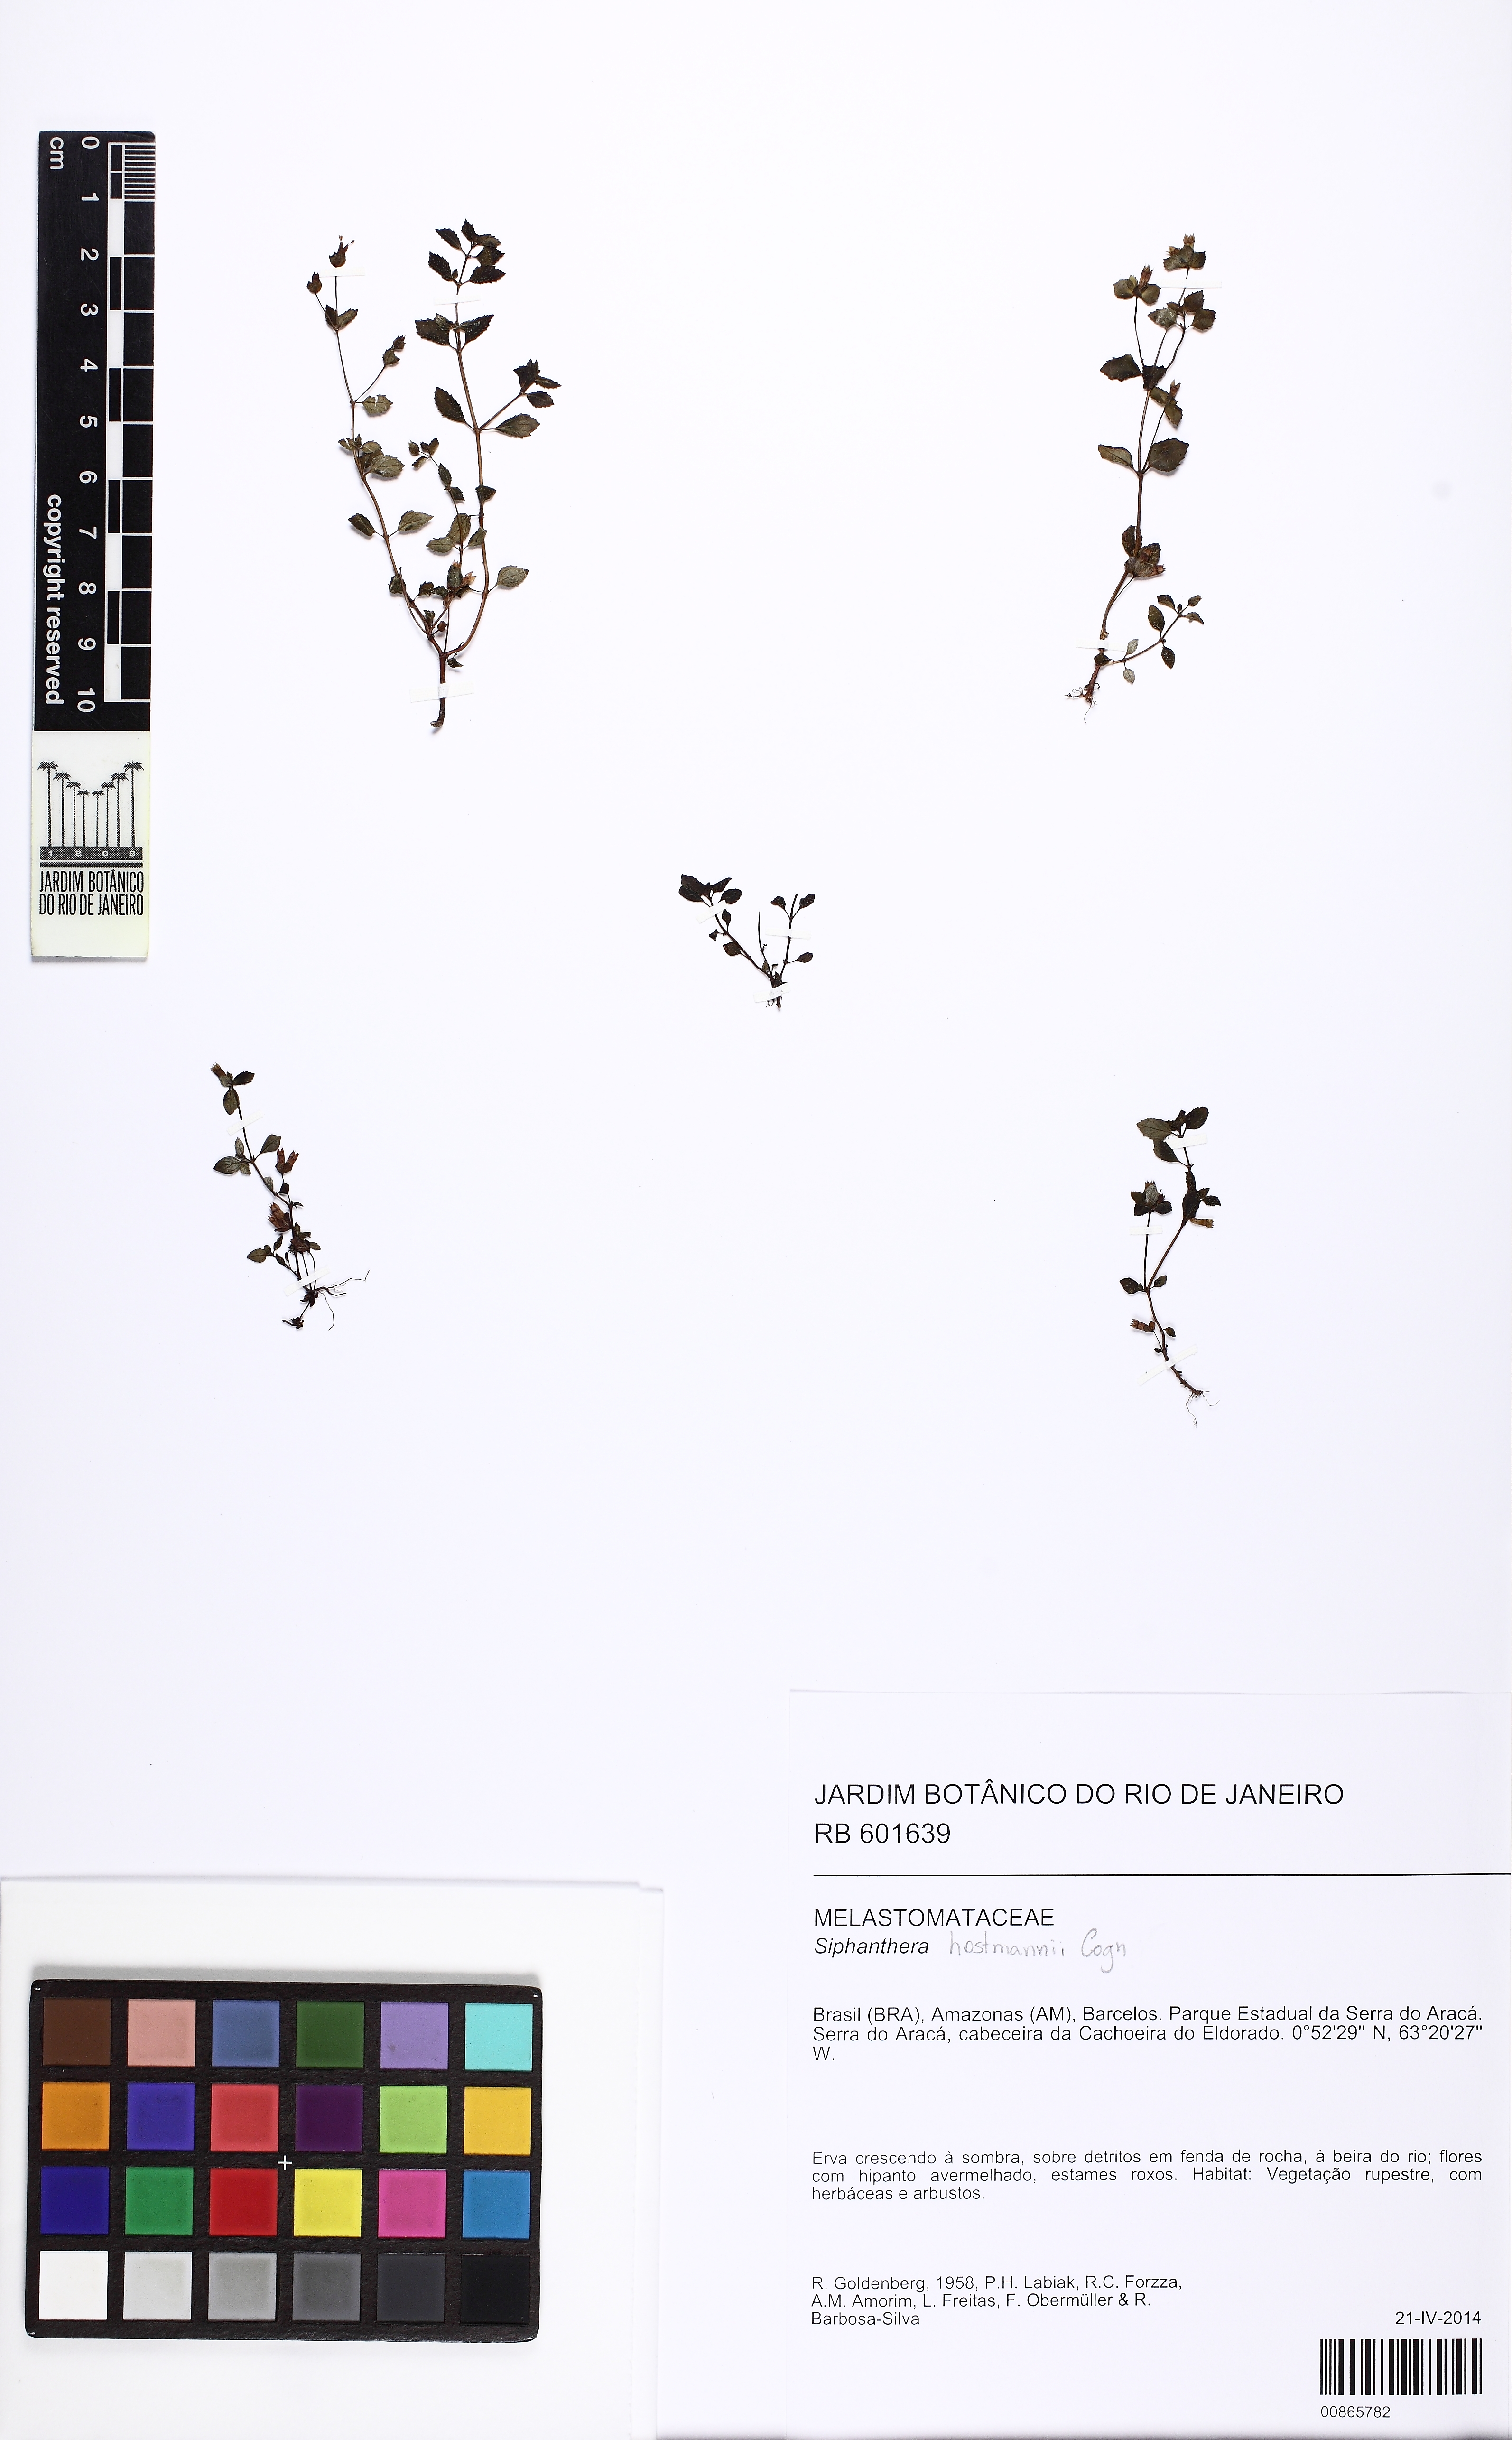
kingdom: Plantae
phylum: Tracheophyta
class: Magnoliopsida
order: Myrtales
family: Melastomataceae
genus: Siphanthera
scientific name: Siphanthera hostmannii
